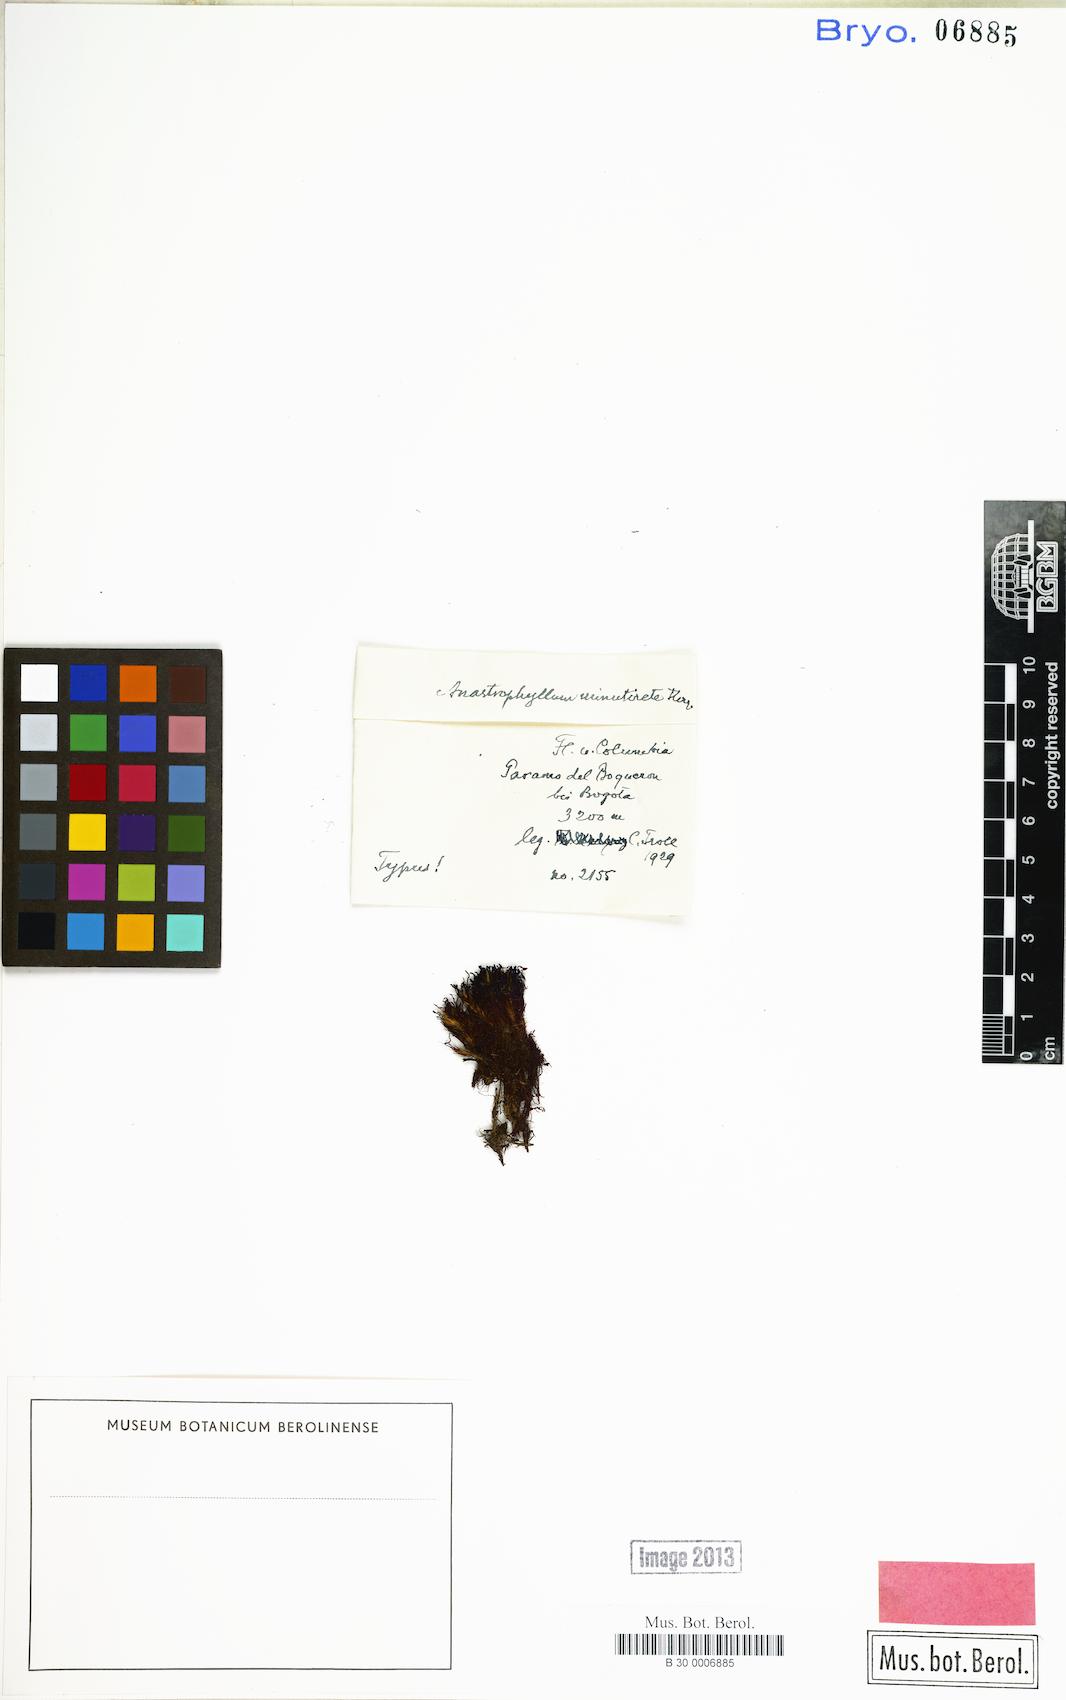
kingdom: Plantae
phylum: Marchantiophyta
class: Jungermanniopsida
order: Jungermanniales
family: Anastrophyllaceae
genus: Anastrophyllum
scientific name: Anastrophyllum auritum
